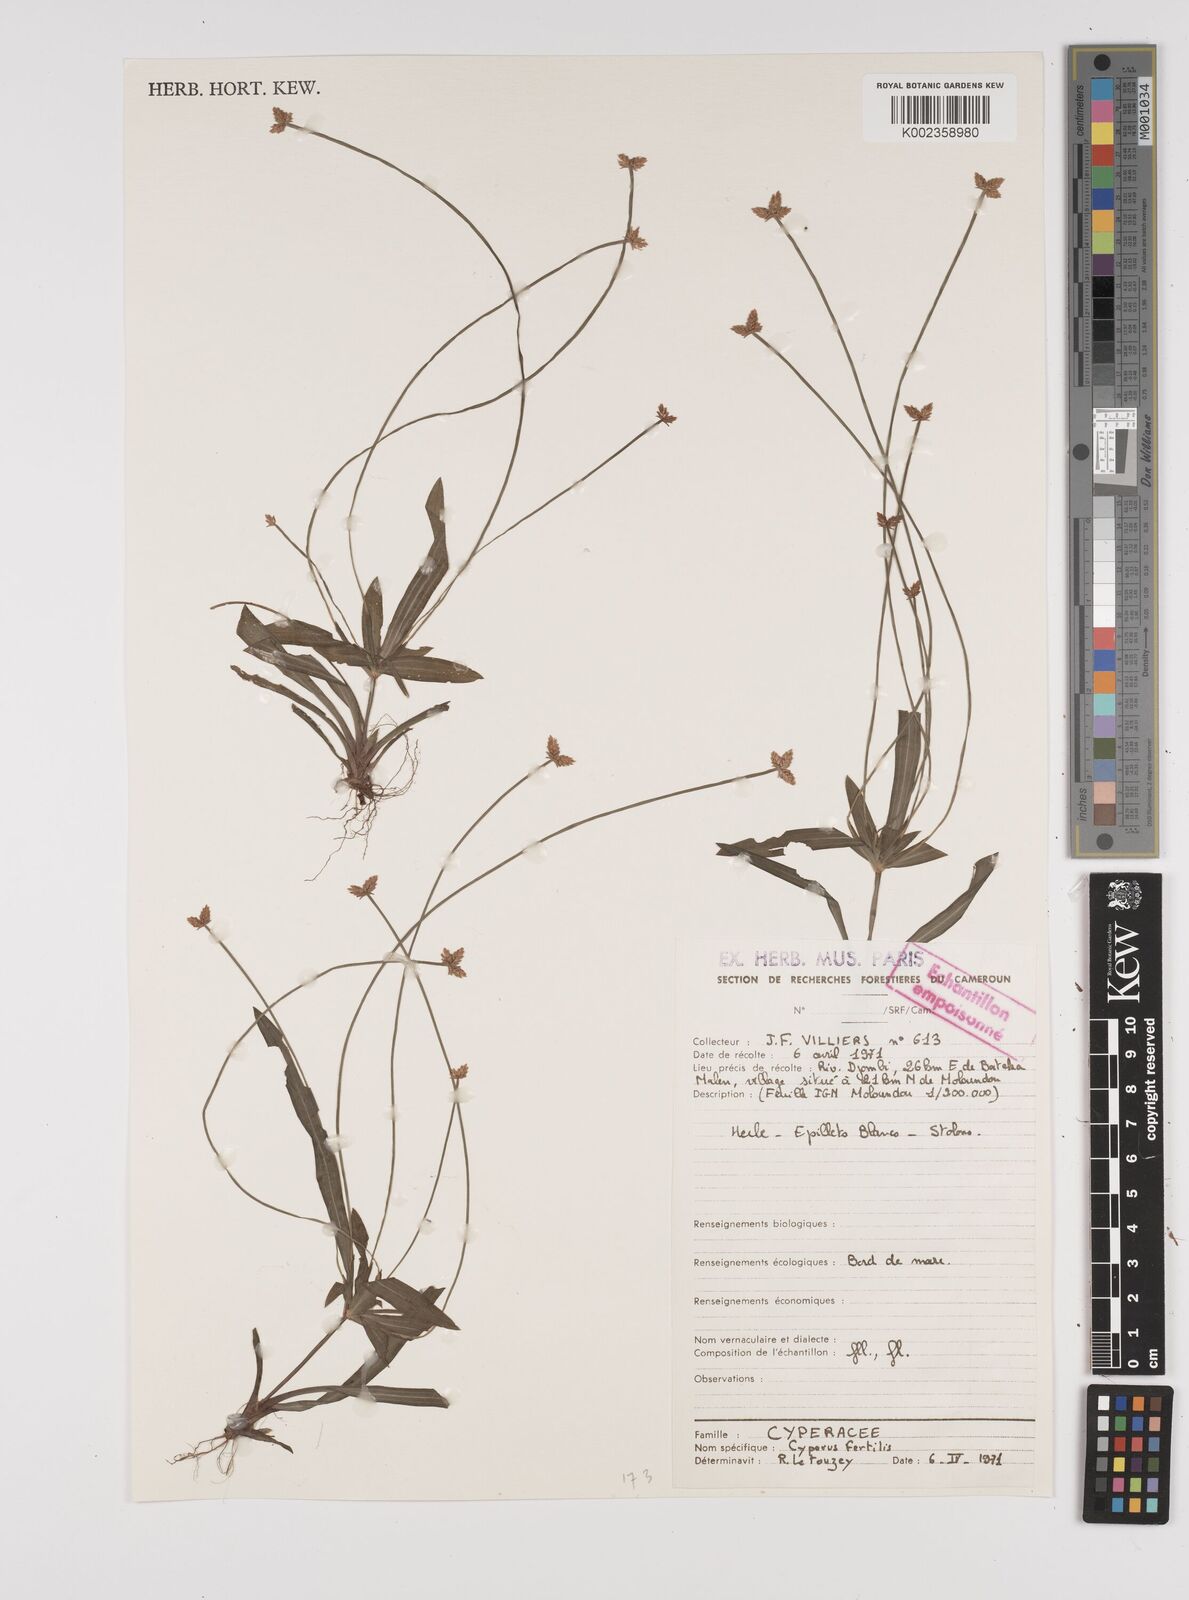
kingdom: Plantae
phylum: Tracheophyta
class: Liliopsida
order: Poales
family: Cyperaceae
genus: Cyperus
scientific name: Cyperus fertilis
